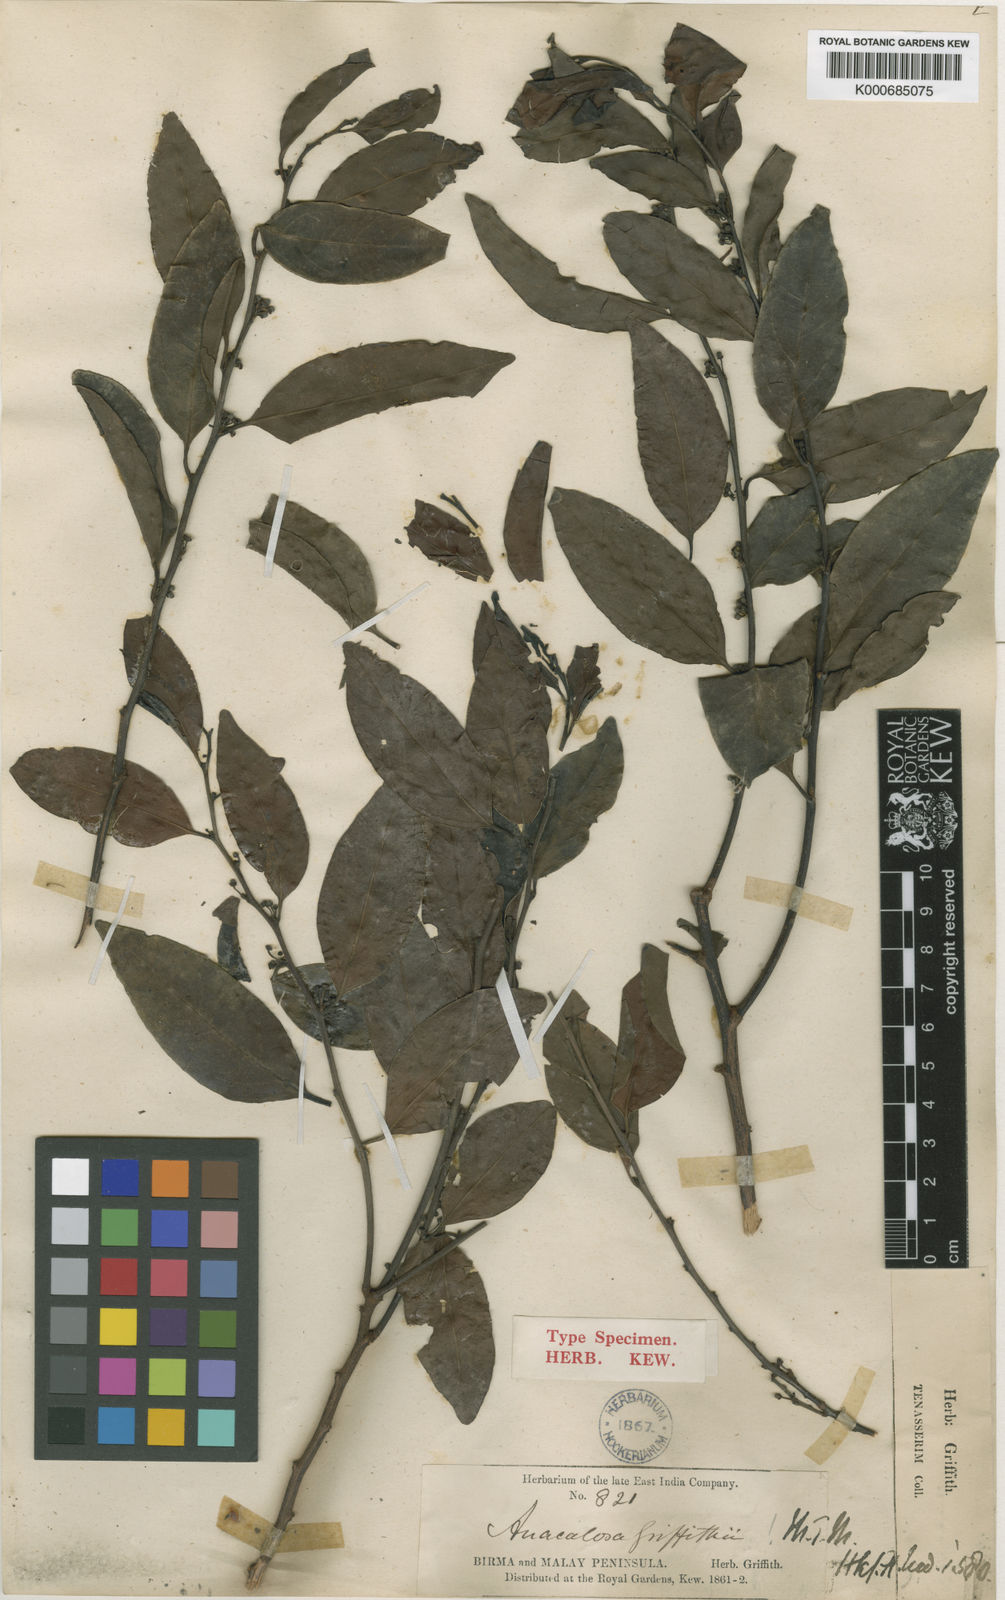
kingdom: Plantae
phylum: Tracheophyta
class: Magnoliopsida
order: Santalales
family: Aptandraceae
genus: Anacolosa
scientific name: Anacolosa griffithii
